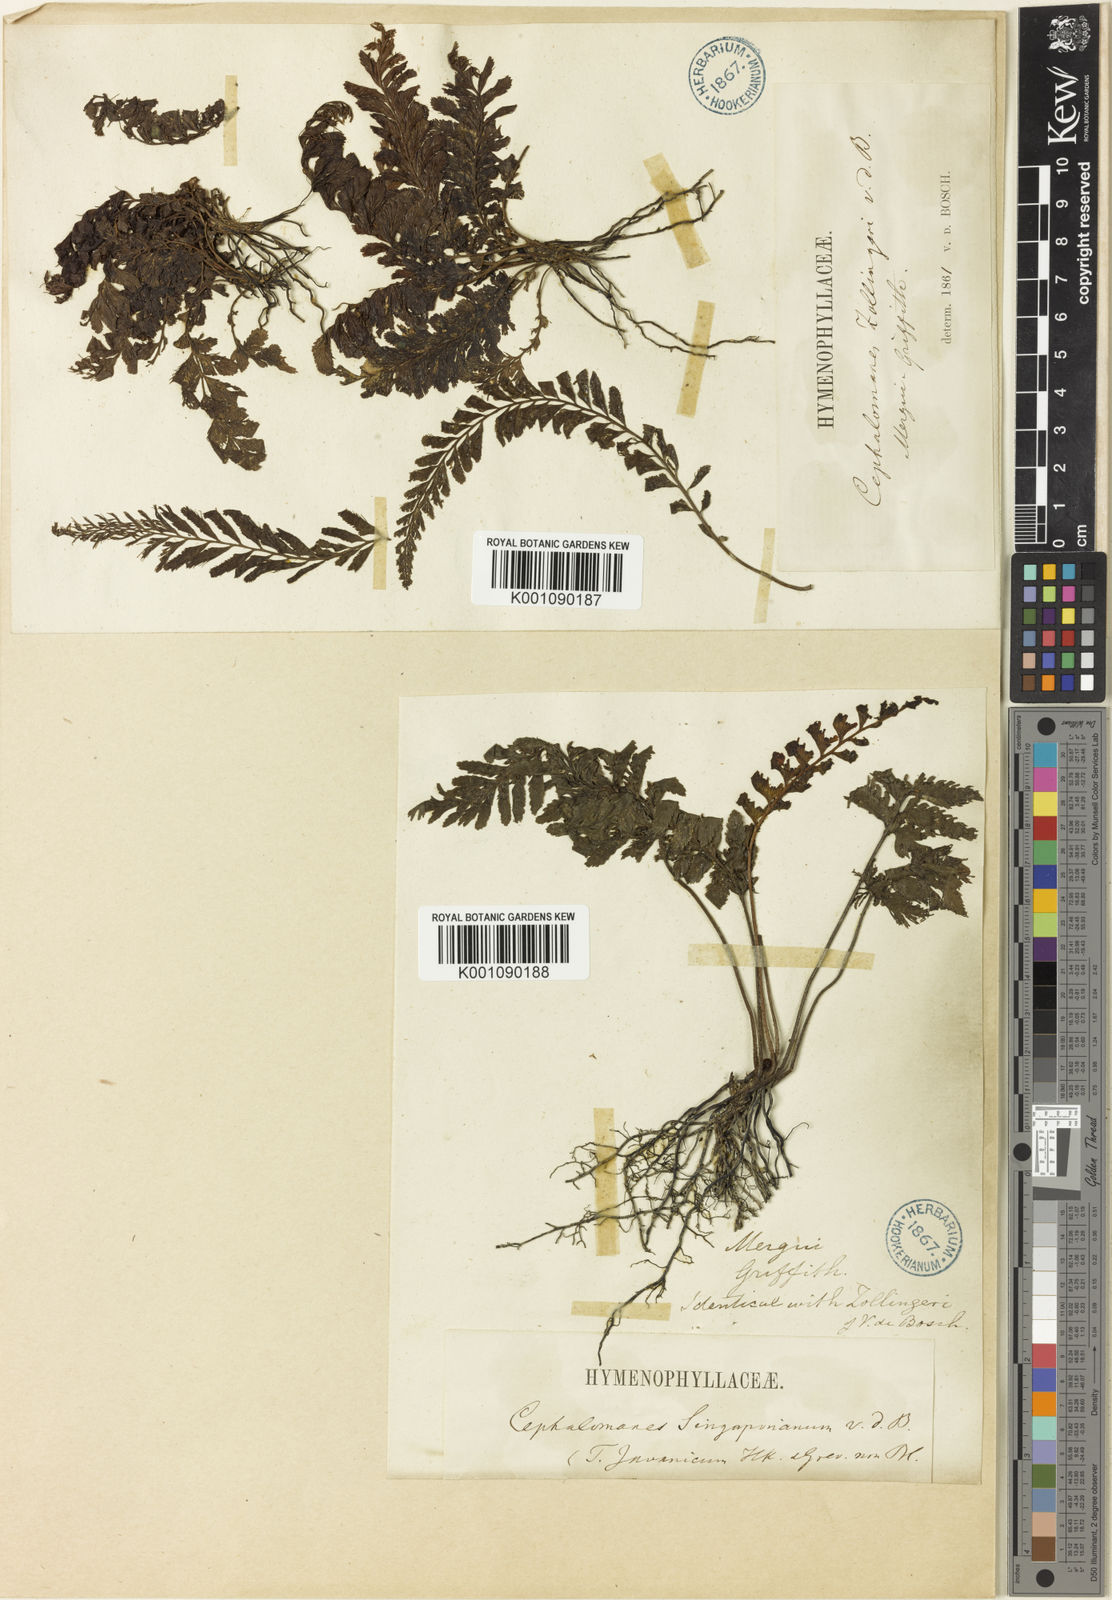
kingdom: Plantae
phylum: Tracheophyta
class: Polypodiopsida
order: Hymenophyllales
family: Hymenophyllaceae
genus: Cephalomanes
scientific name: Cephalomanes javanicum
